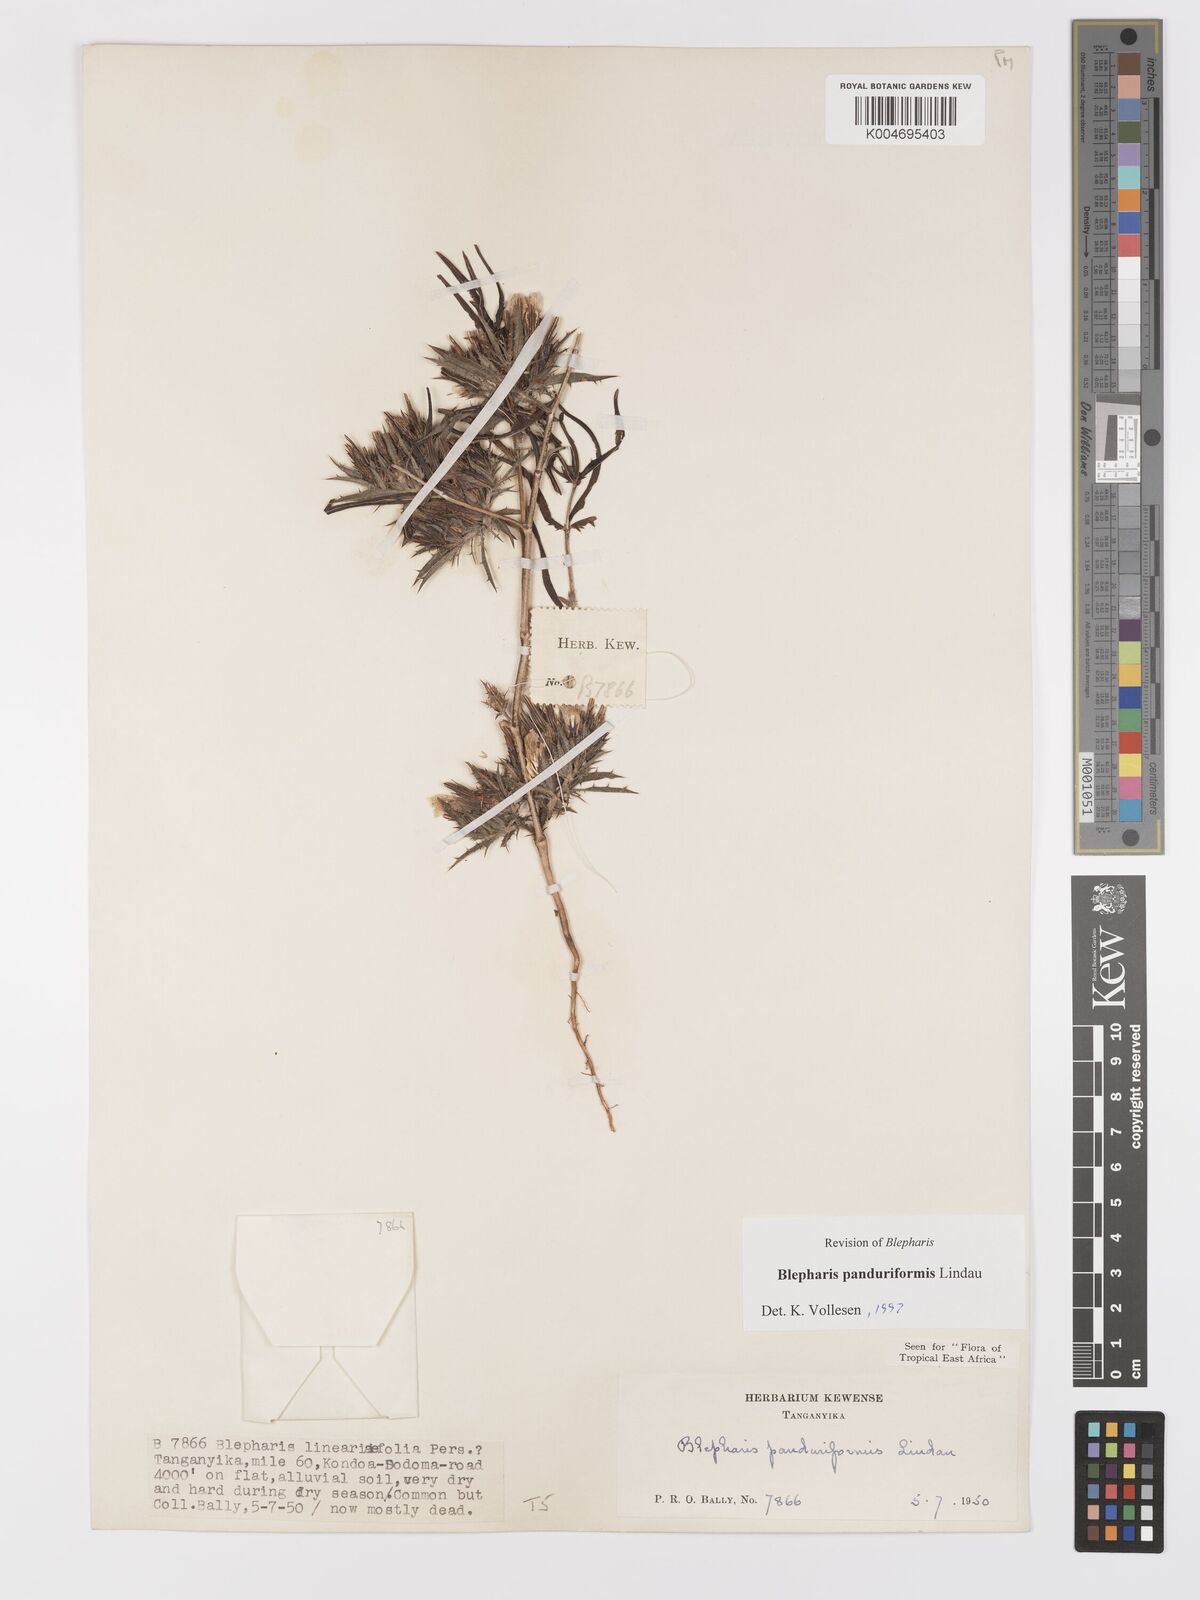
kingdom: Plantae
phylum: Tracheophyta
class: Magnoliopsida
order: Lamiales
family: Acanthaceae
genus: Blepharis
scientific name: Blepharis panduriformis
